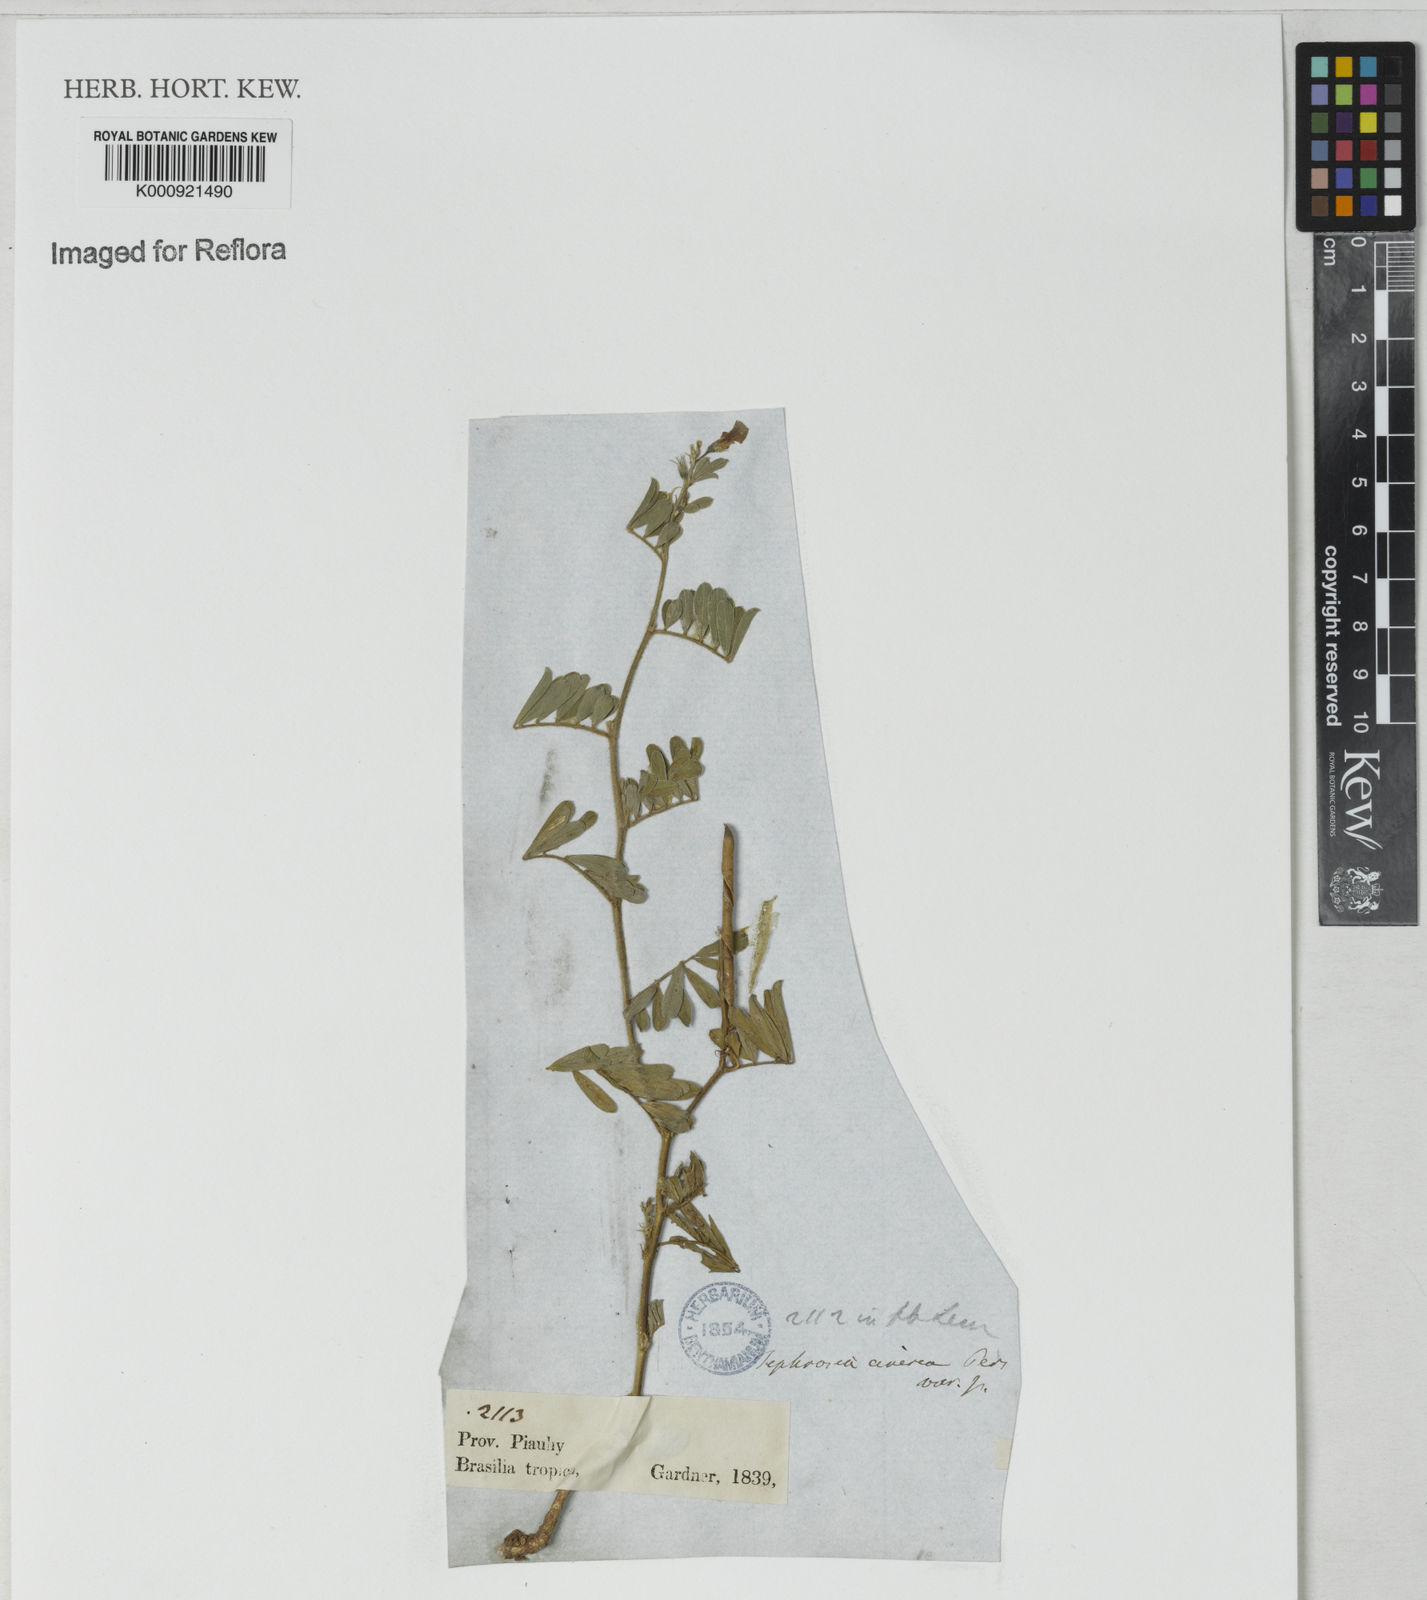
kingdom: Plantae
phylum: Tracheophyta
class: Magnoliopsida
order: Fabales
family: Fabaceae
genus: Tephrosia
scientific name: Tephrosia cinerea
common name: Ashen hoarypea
